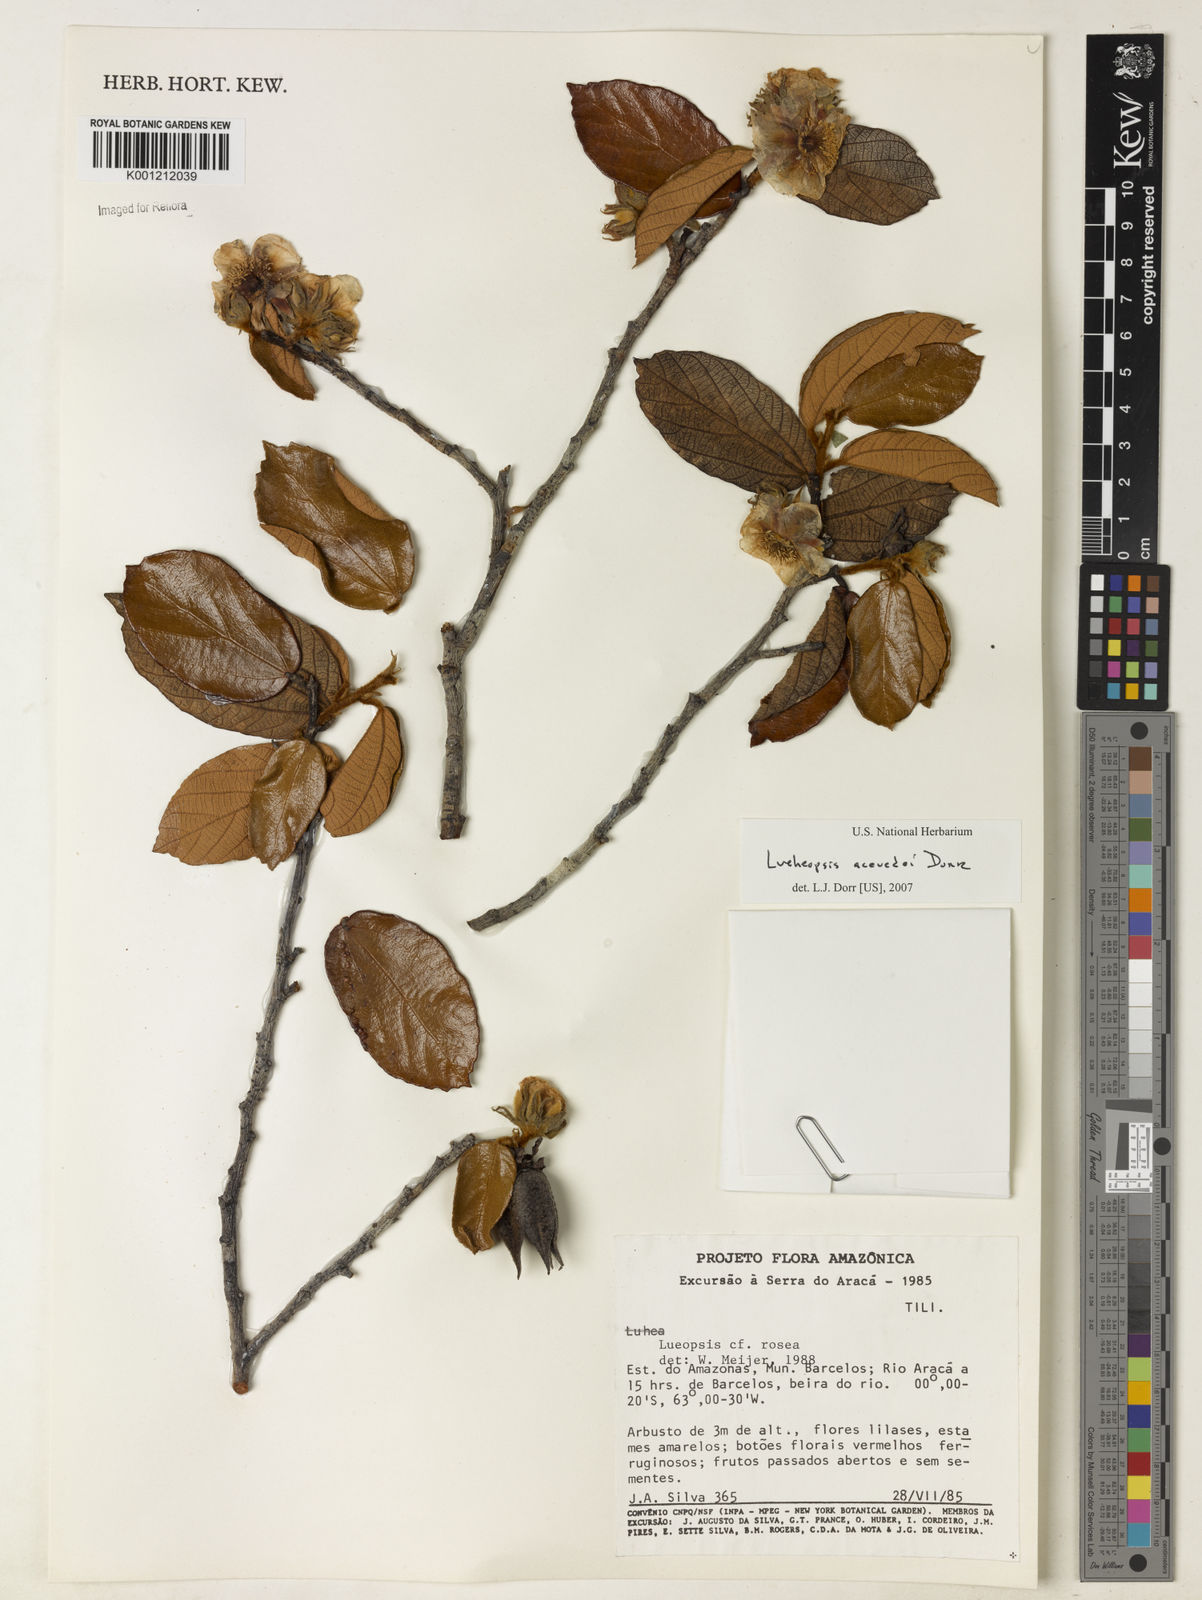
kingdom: Plantae
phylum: Tracheophyta
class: Magnoliopsida
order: Malvales
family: Malvaceae
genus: Lueheopsis
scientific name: Lueheopsis
